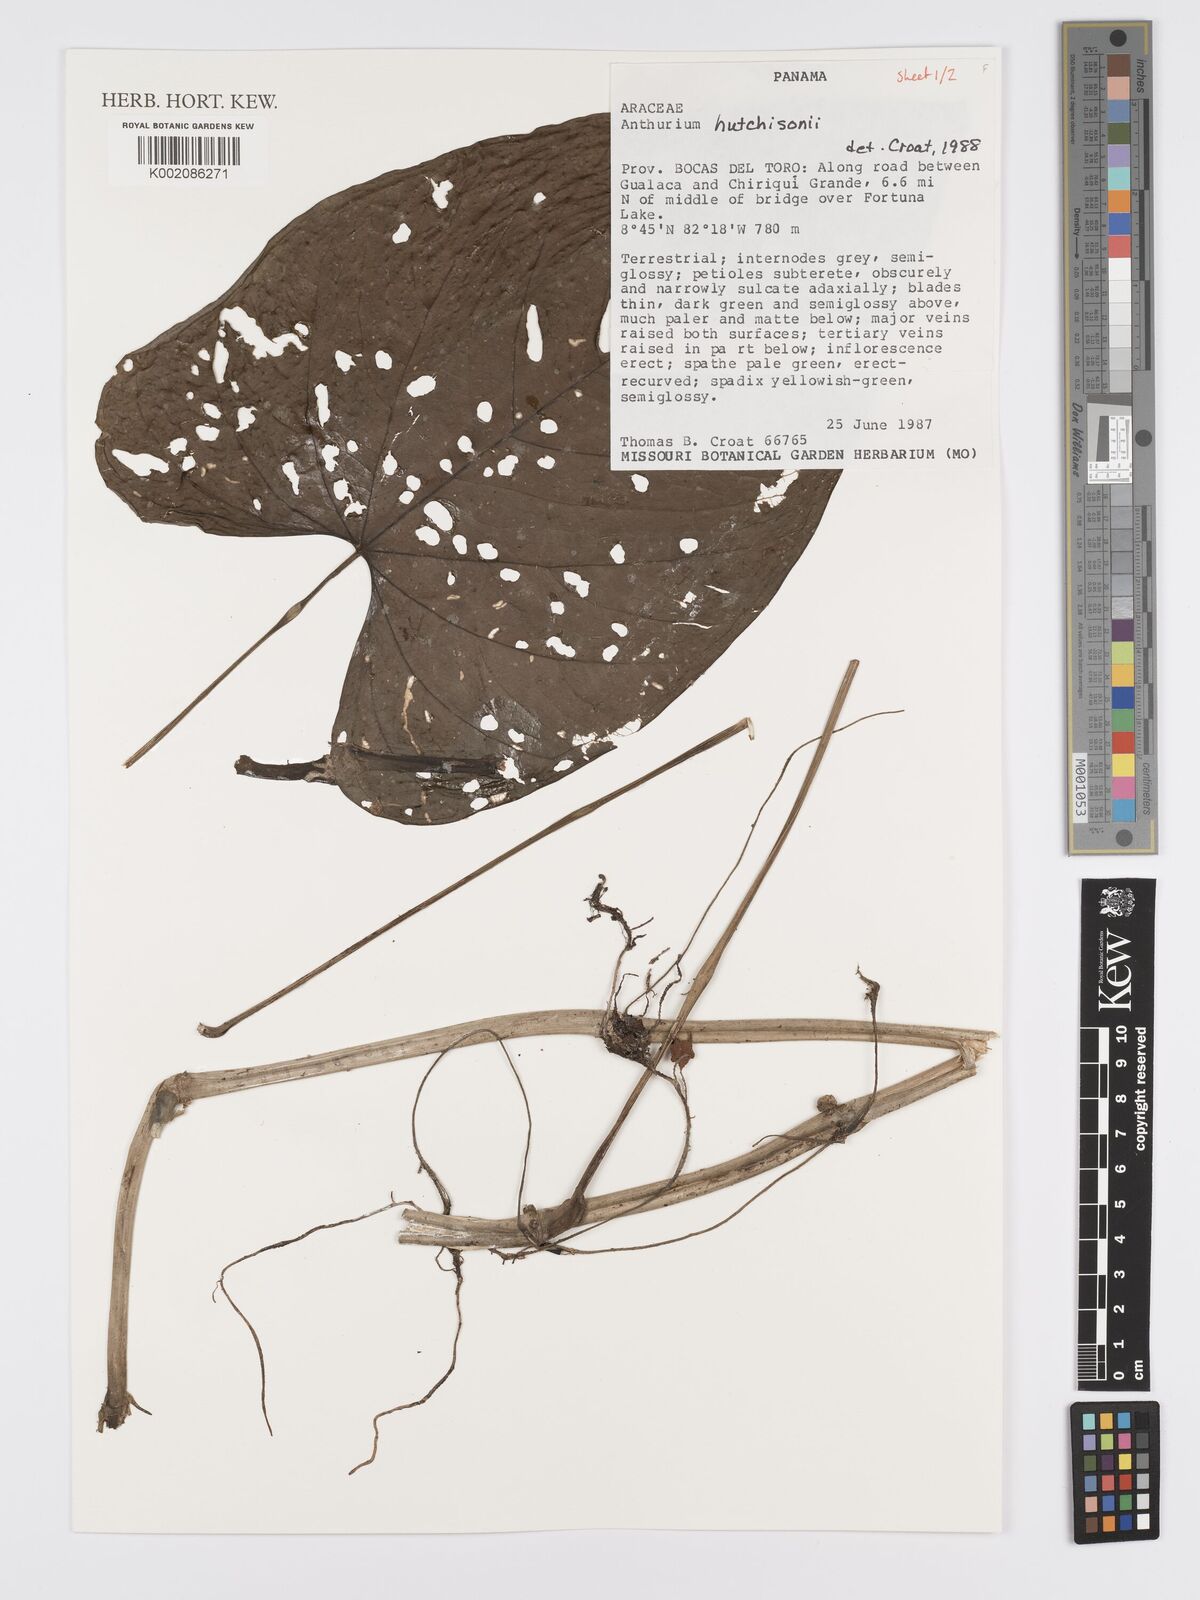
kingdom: Plantae
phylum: Tracheophyta
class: Liliopsida
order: Alismatales
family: Araceae
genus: Anthurium
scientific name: Anthurium hutchisonii
